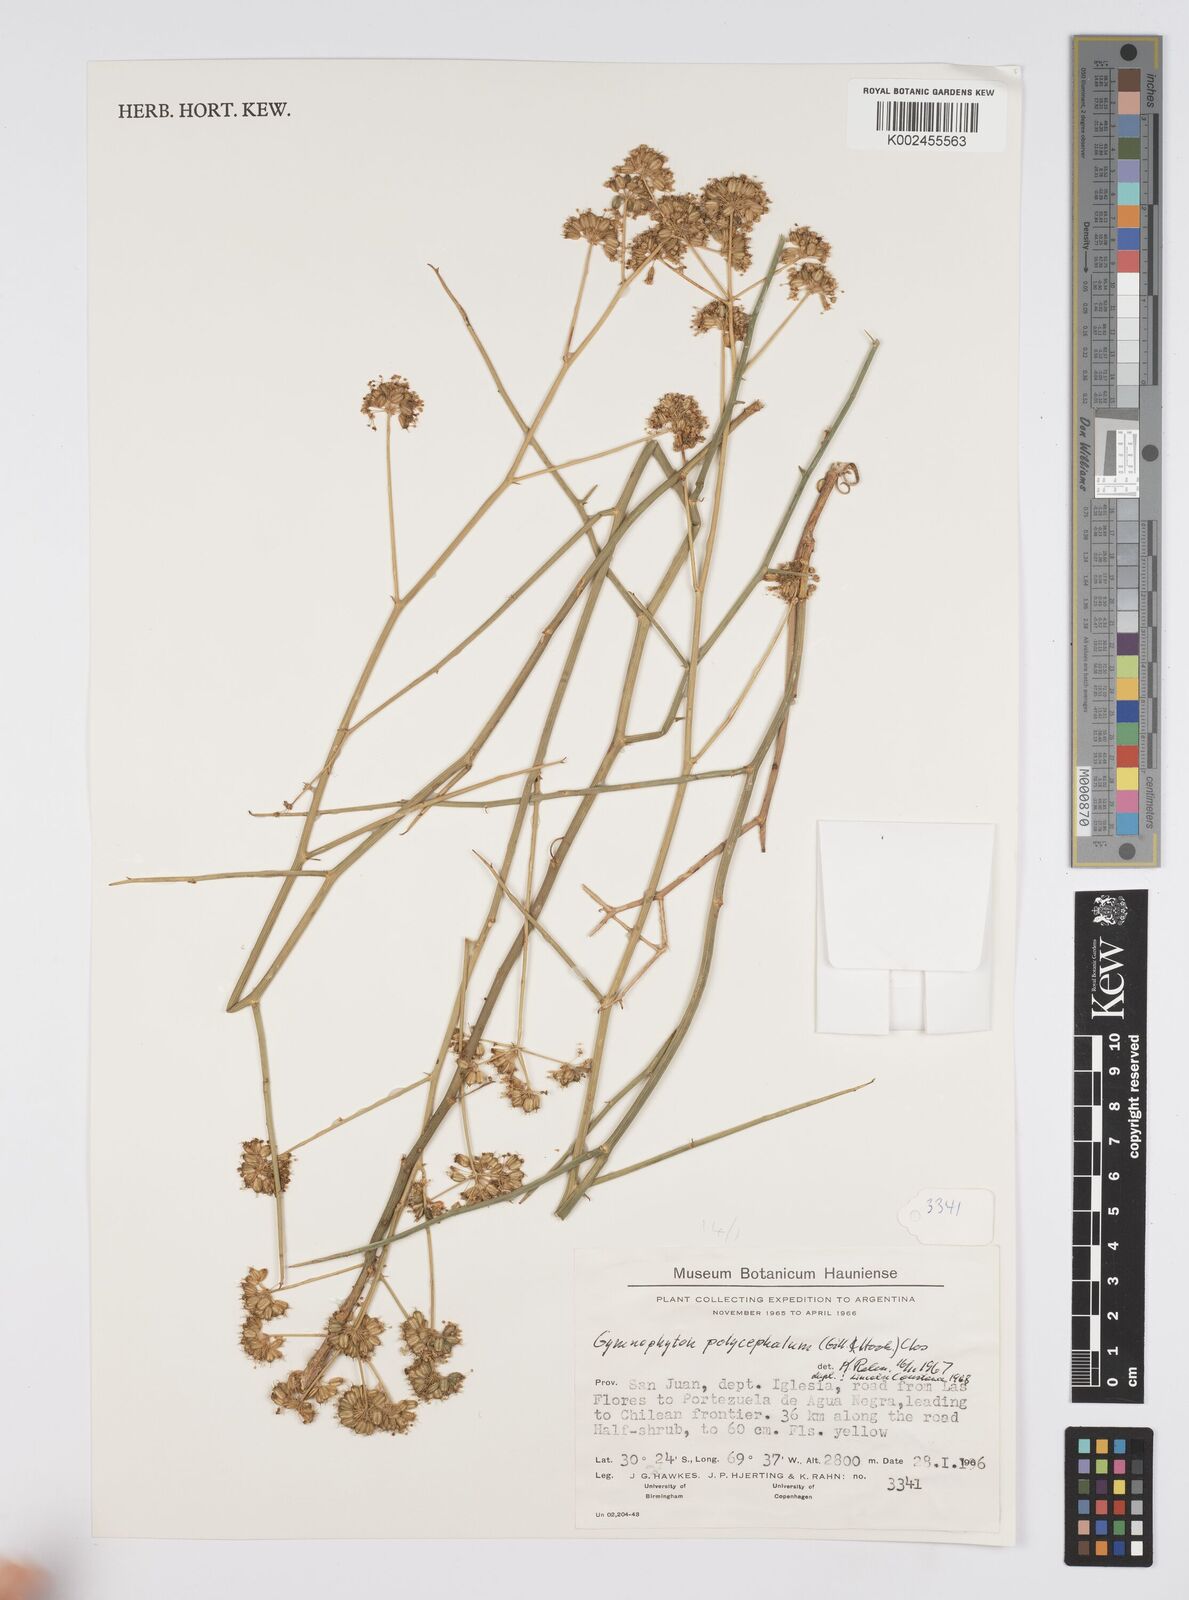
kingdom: Plantae
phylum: Tracheophyta
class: Magnoliopsida
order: Apiales
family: Apiaceae
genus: Gymnophyton
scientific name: Gymnophyton polycephalum
